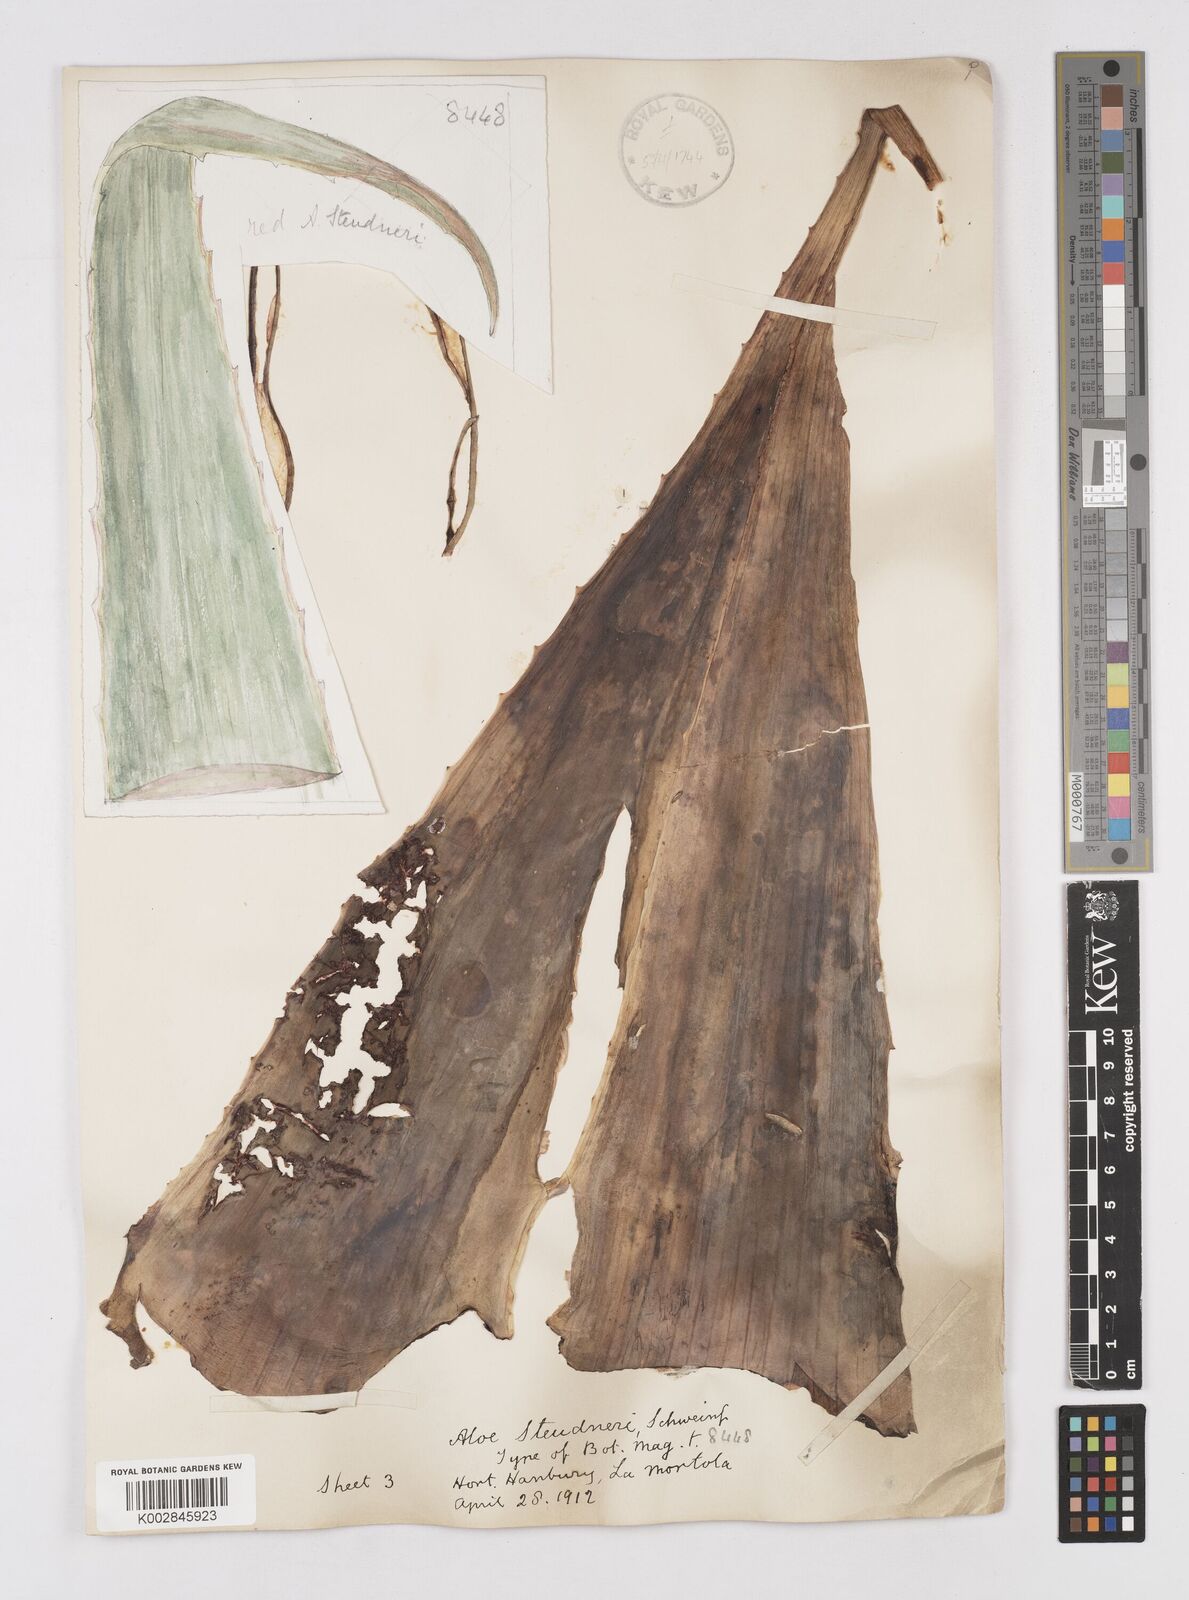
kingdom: Plantae
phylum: Tracheophyta
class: Liliopsida
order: Asparagales
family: Asphodelaceae
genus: Aloe
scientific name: Aloe steudneri
